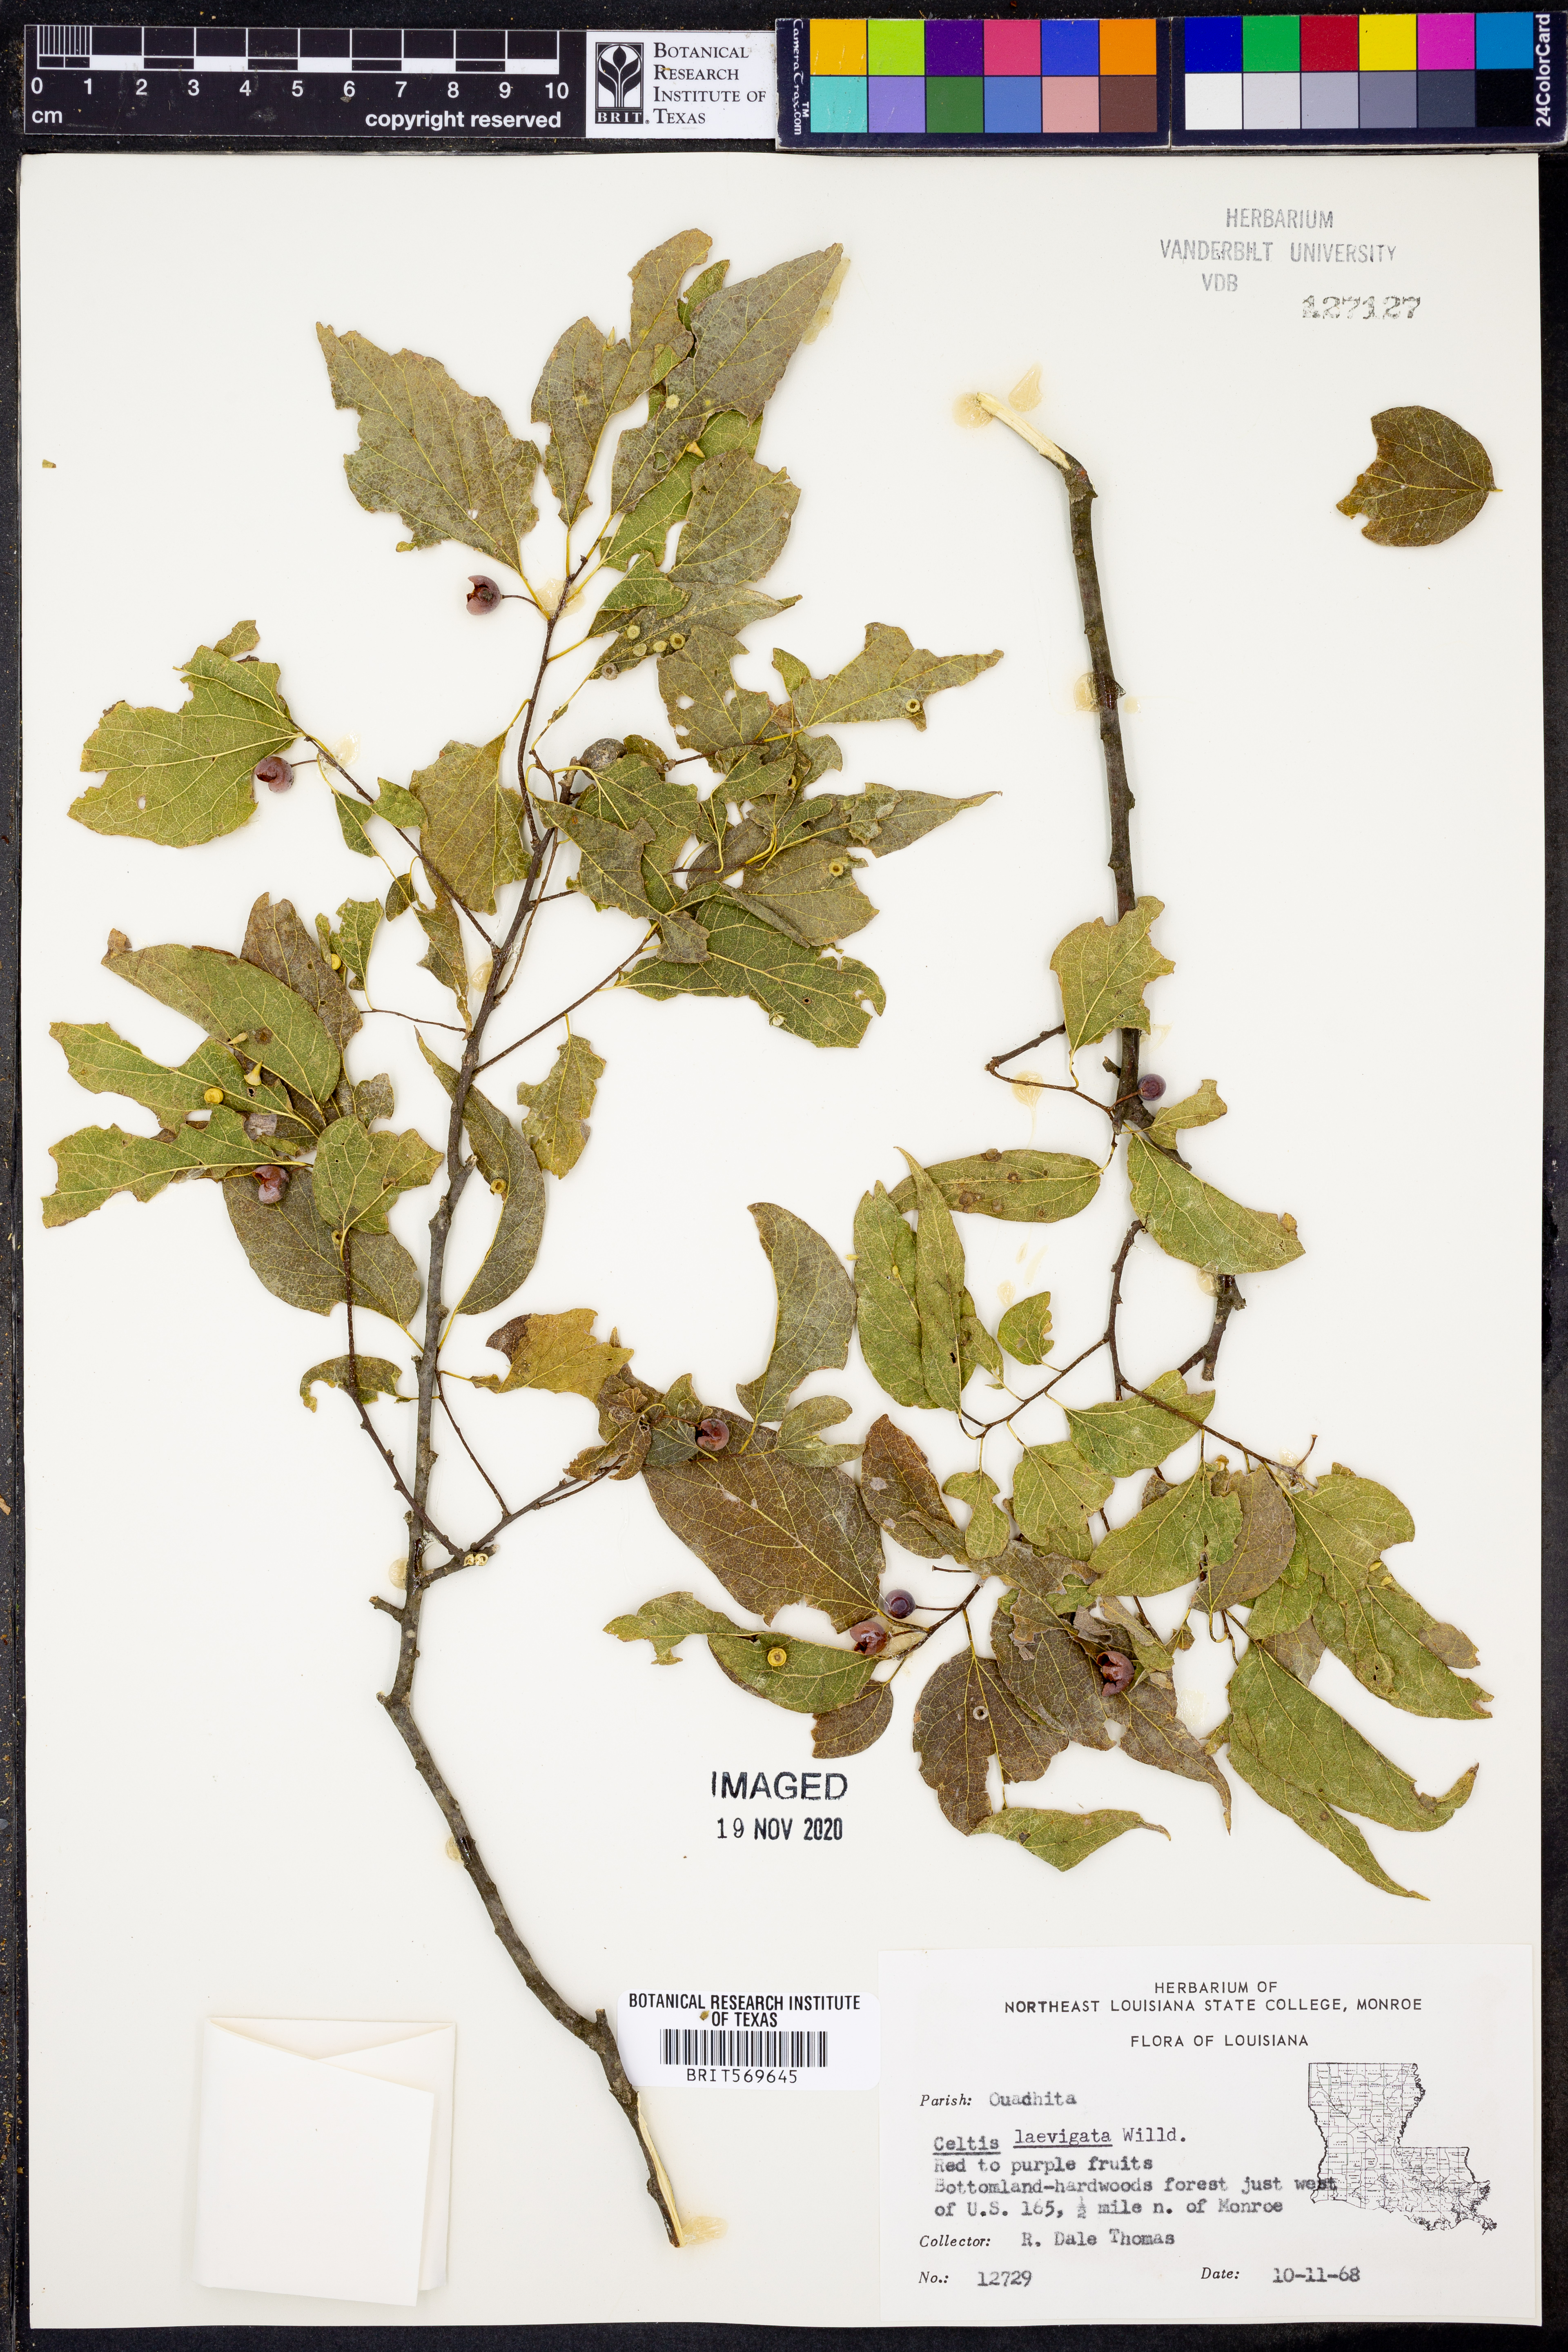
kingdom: Plantae
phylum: Tracheophyta
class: Magnoliopsida
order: Rosales
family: Cannabaceae
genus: Celtis
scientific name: Celtis laevigata
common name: Sugarberry
